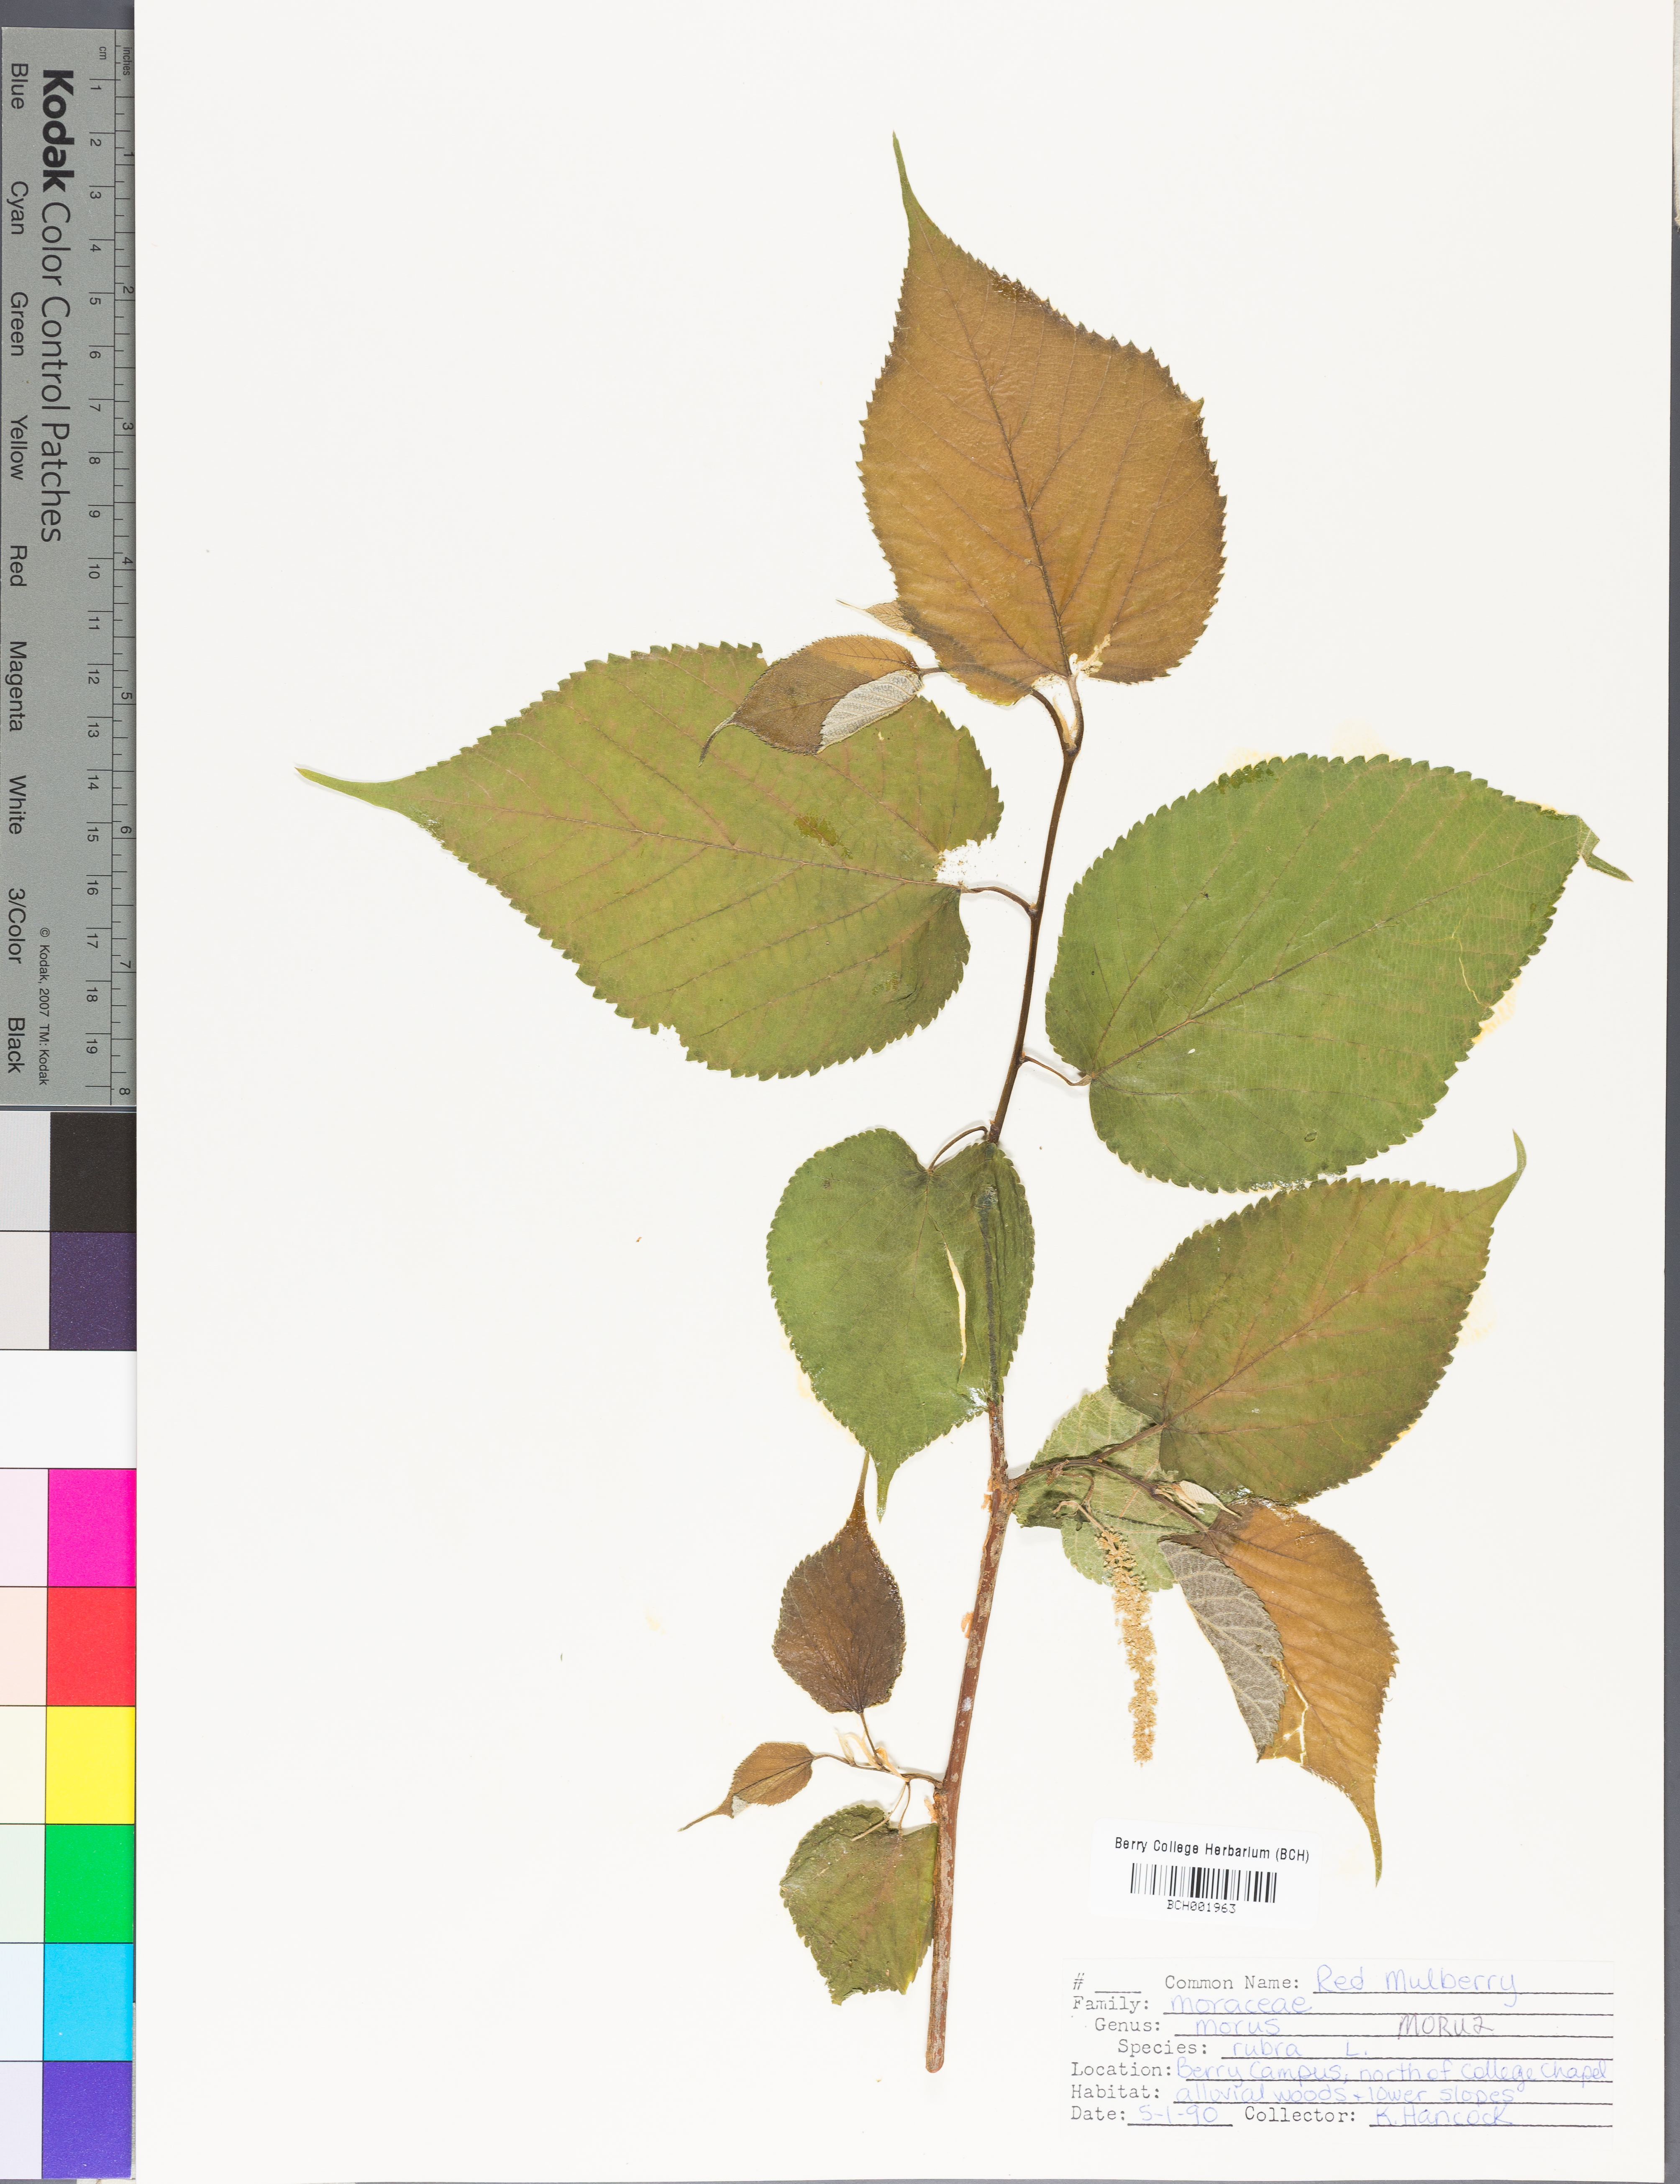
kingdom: Plantae
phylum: Tracheophyta
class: Magnoliopsida
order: Rosales
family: Moraceae
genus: Morus
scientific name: Morus rubra
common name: Red mulberry
